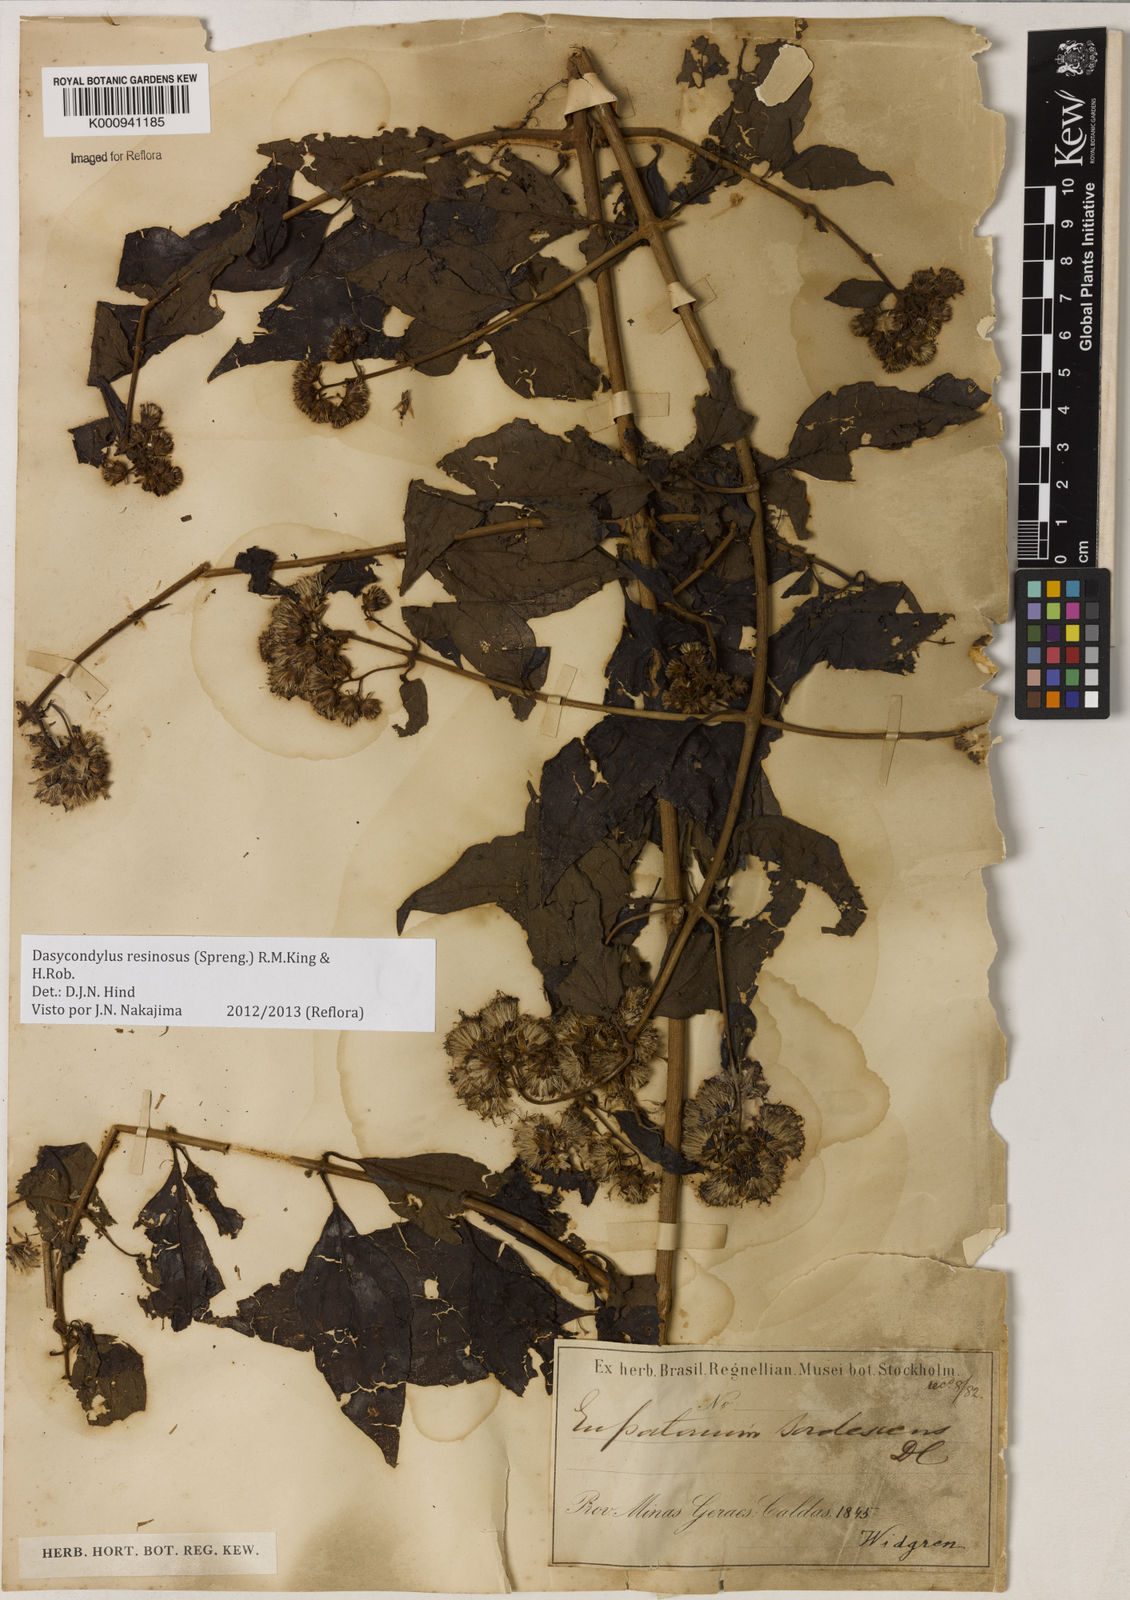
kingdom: Plantae
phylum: Tracheophyta
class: Magnoliopsida
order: Asterales
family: Asteraceae
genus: Dasycondylus
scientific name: Dasycondylus resinosus
